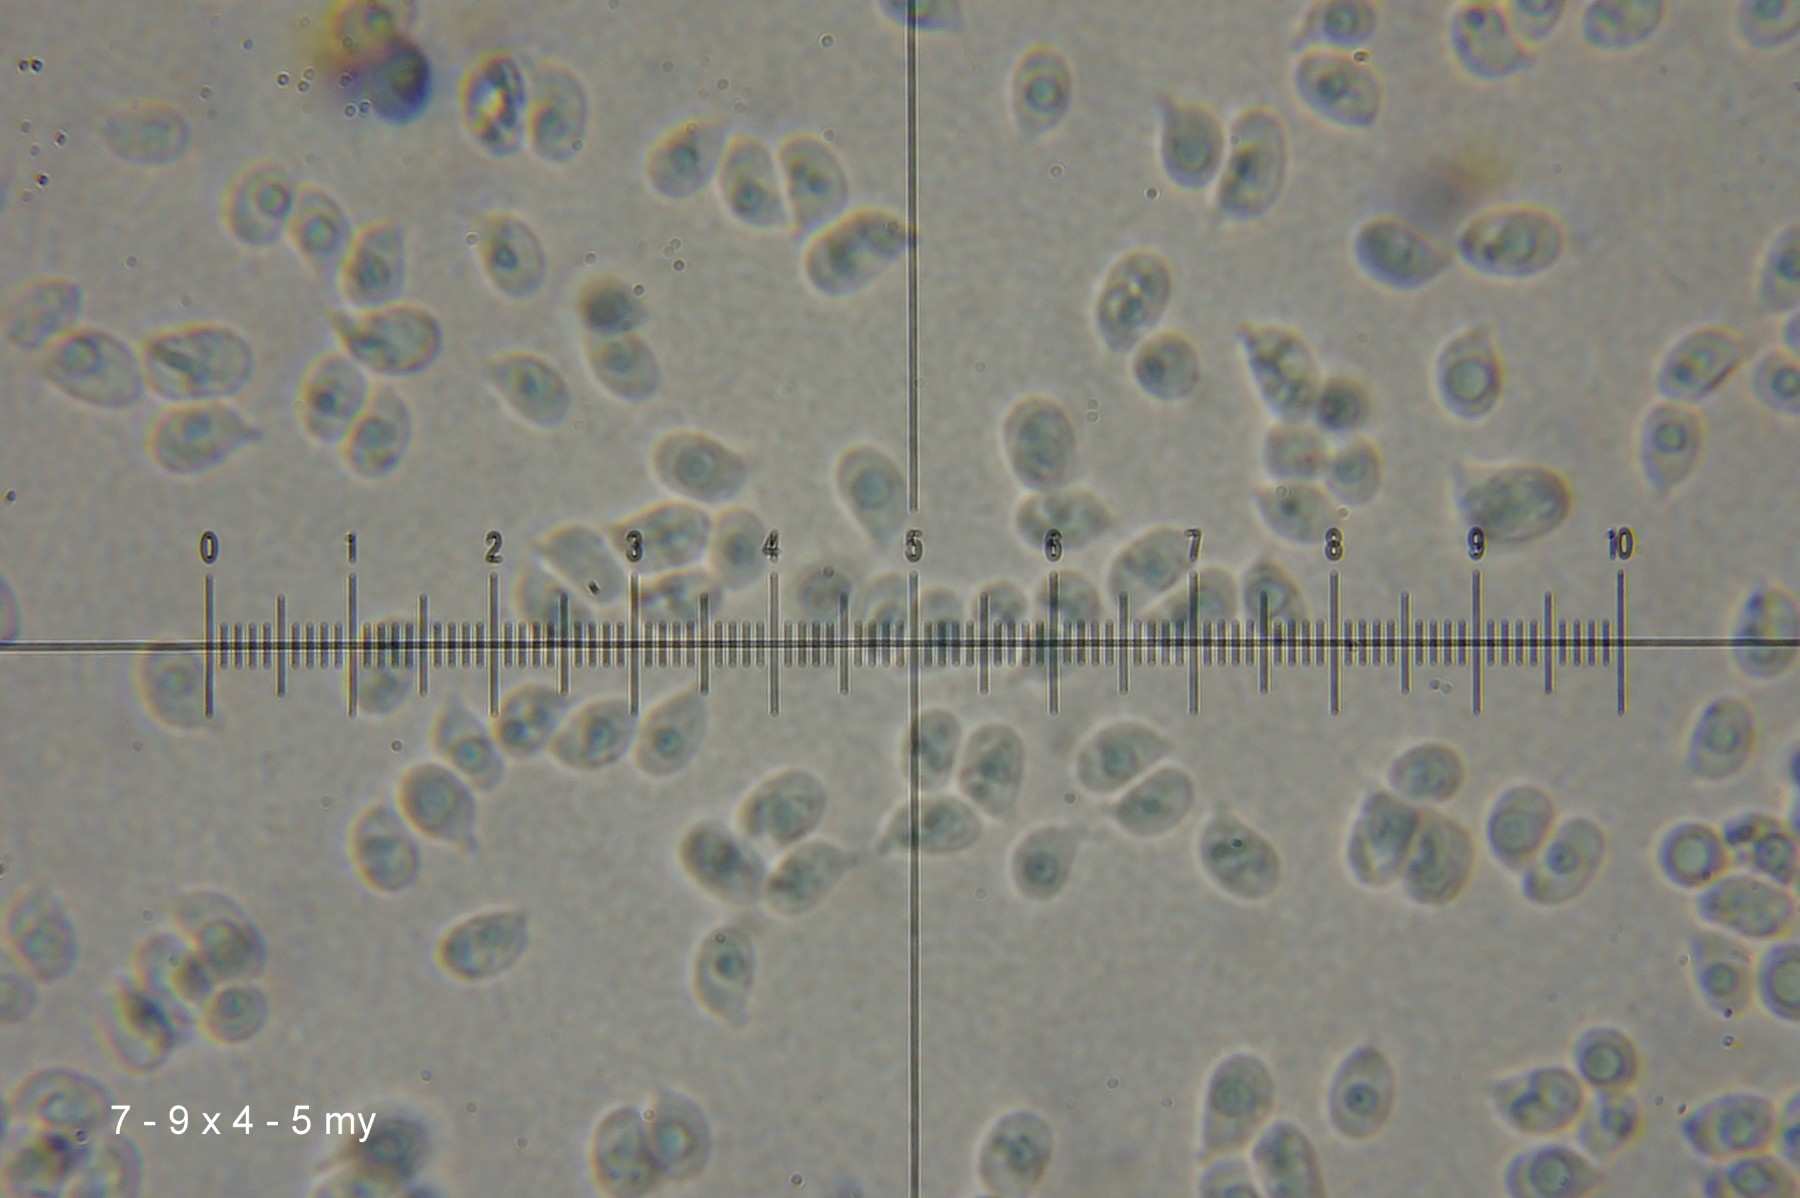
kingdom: Fungi
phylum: Basidiomycota
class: Agaricomycetes
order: Agaricales
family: Hygrophoraceae
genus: Hygrocybe
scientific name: Hygrocybe helobia
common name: hvidløgs-vokshat
